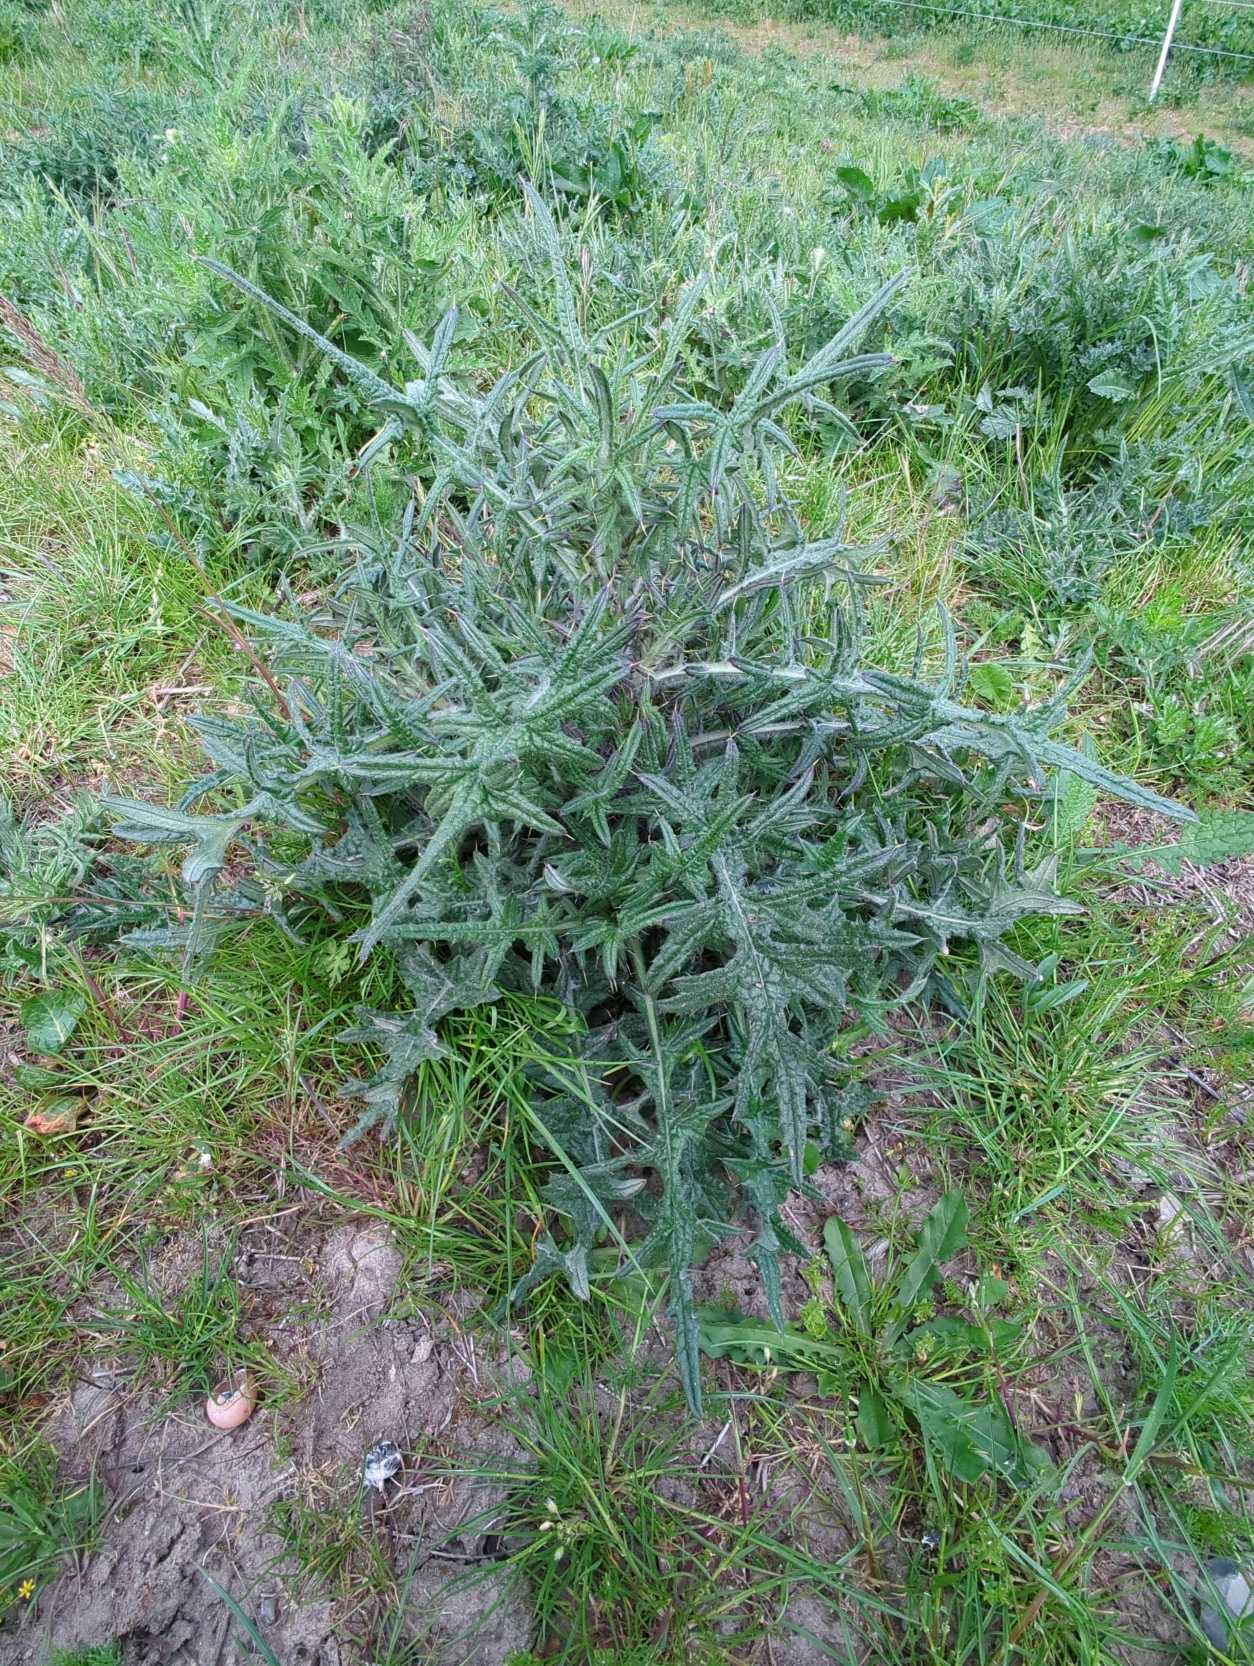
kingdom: Plantae
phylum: Tracheophyta
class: Magnoliopsida
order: Asterales
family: Asteraceae
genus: Cirsium
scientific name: Cirsium vulgare
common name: Horse-tidsel
